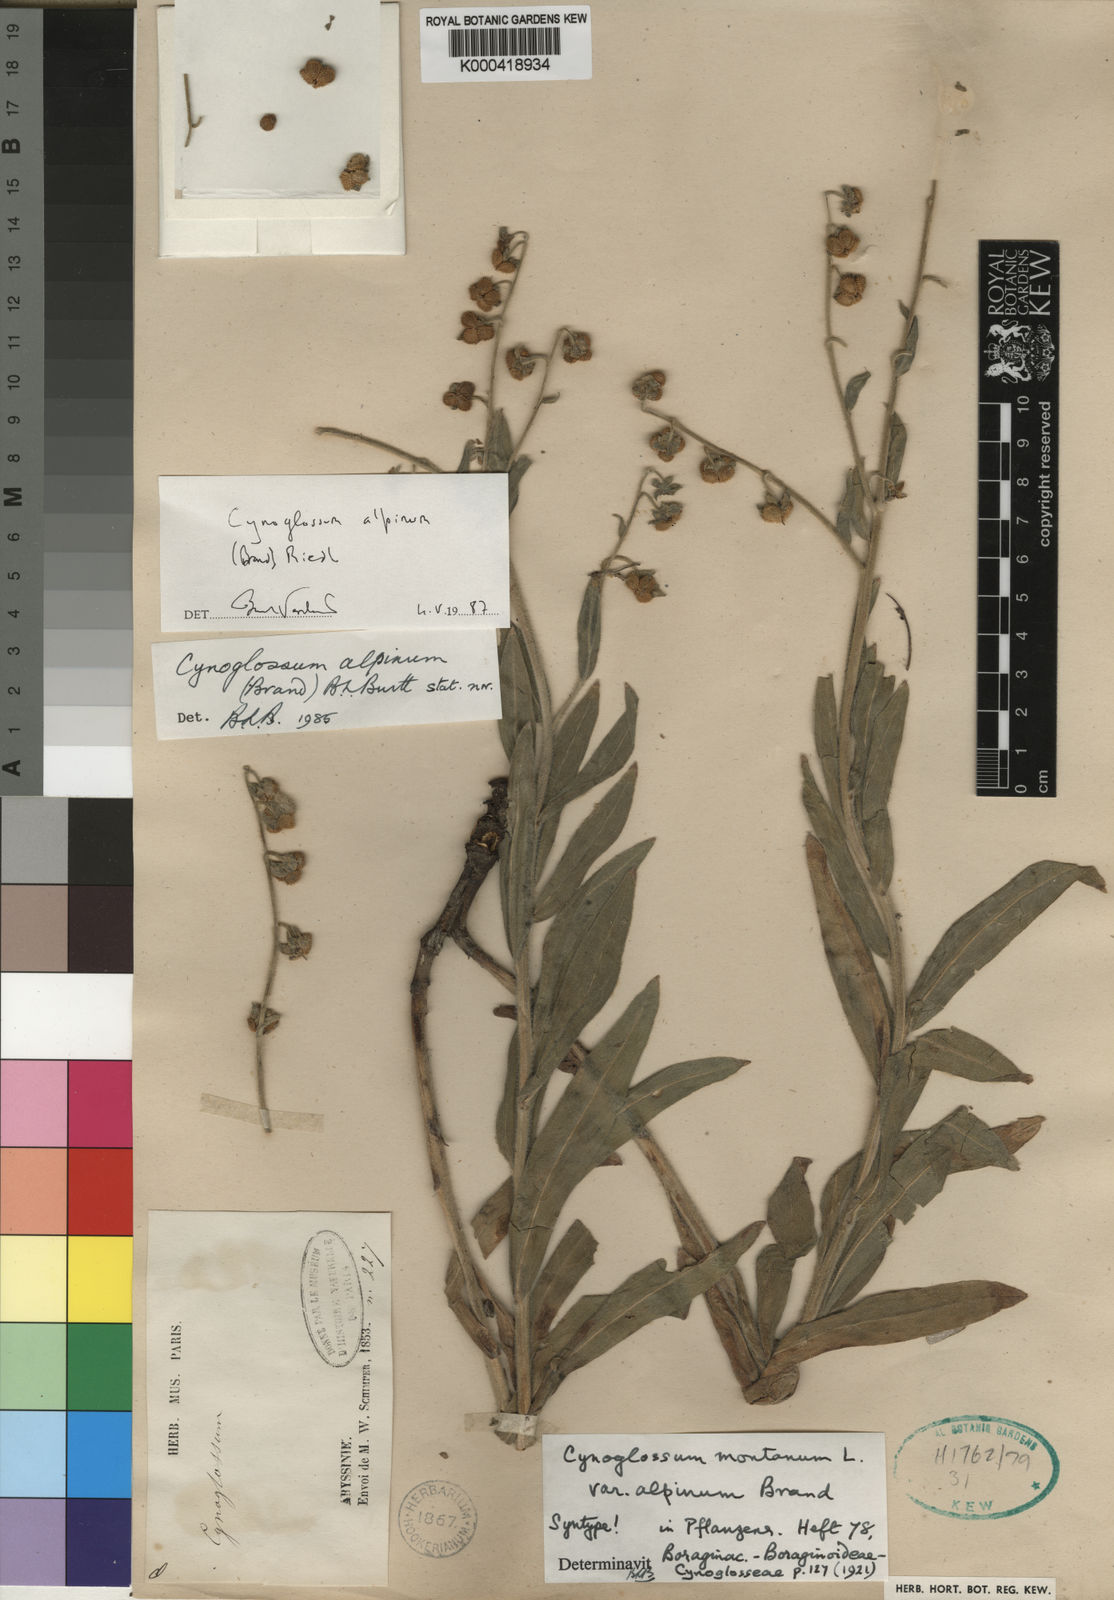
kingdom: Plantae
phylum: Tracheophyta
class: Magnoliopsida
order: Boraginales
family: Boraginaceae
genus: Cynoglossum
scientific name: Cynoglossum
